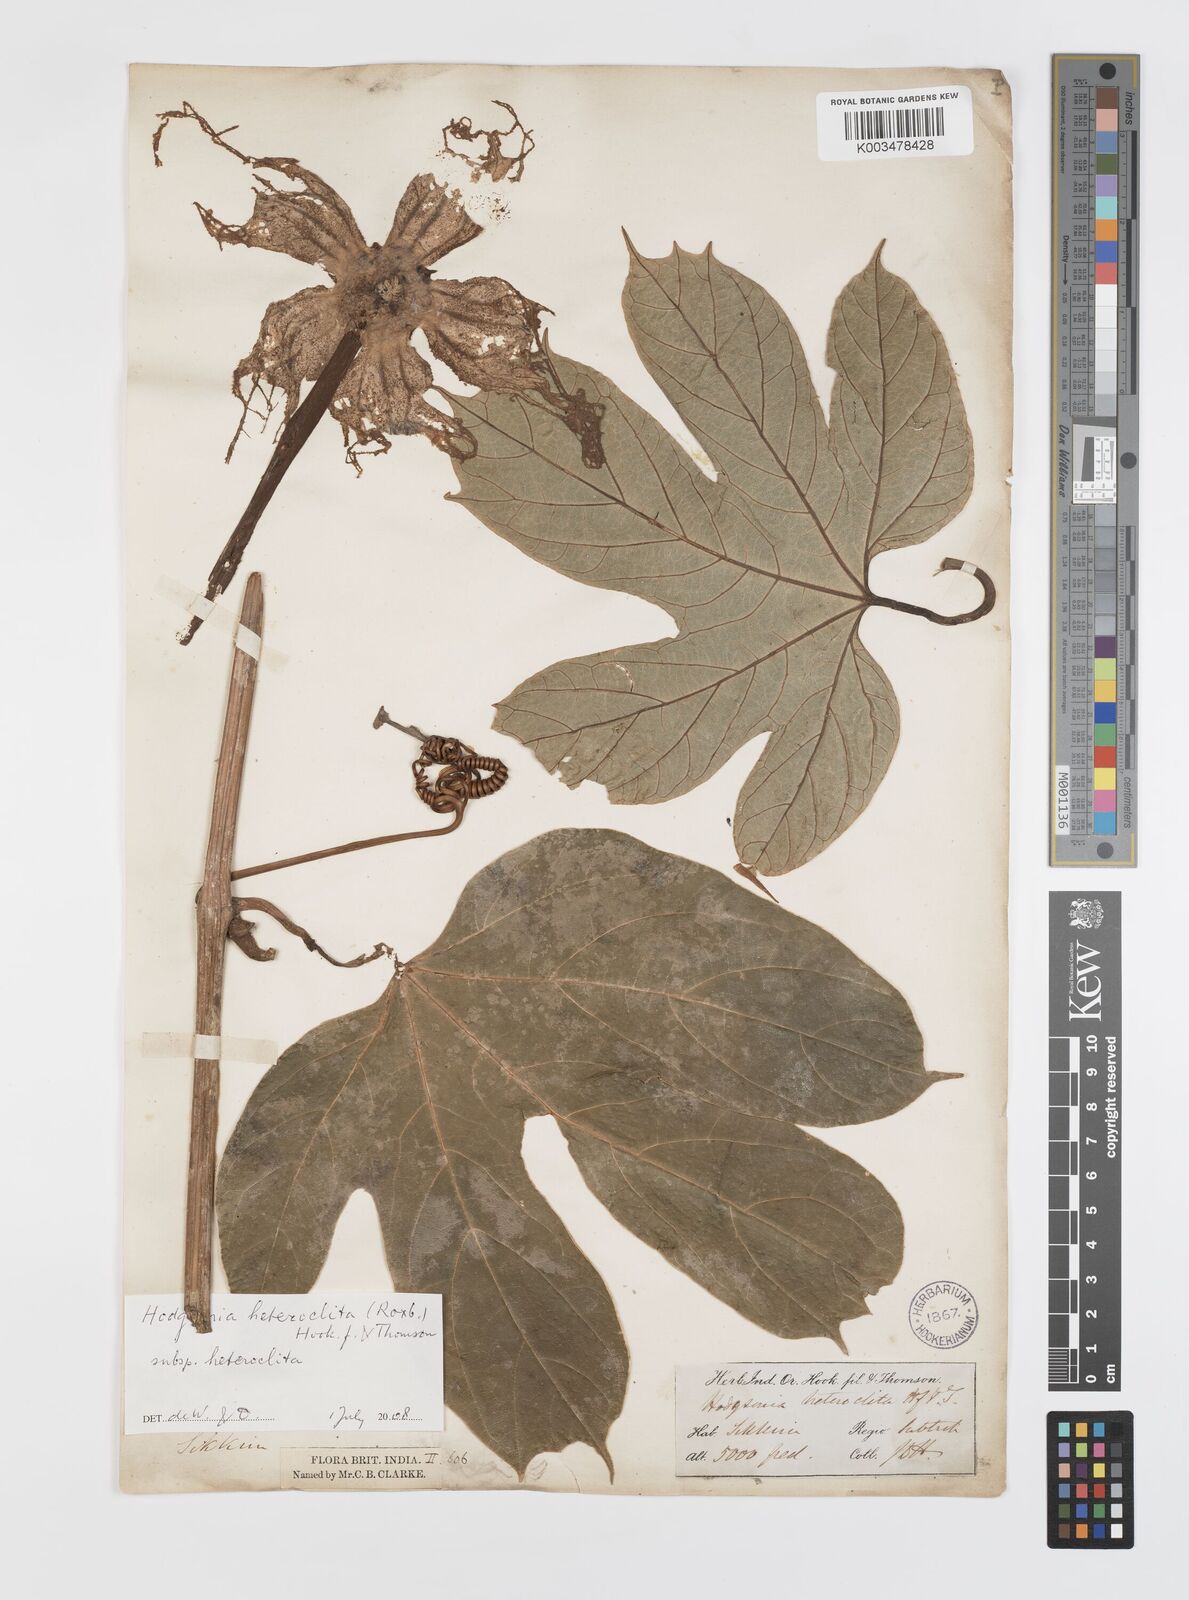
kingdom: Plantae
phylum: Tracheophyta
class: Magnoliopsida
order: Cucurbitales
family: Cucurbitaceae
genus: Hodgsonia
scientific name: Hodgsonia macrocarpa
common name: Chinese lardfruit
